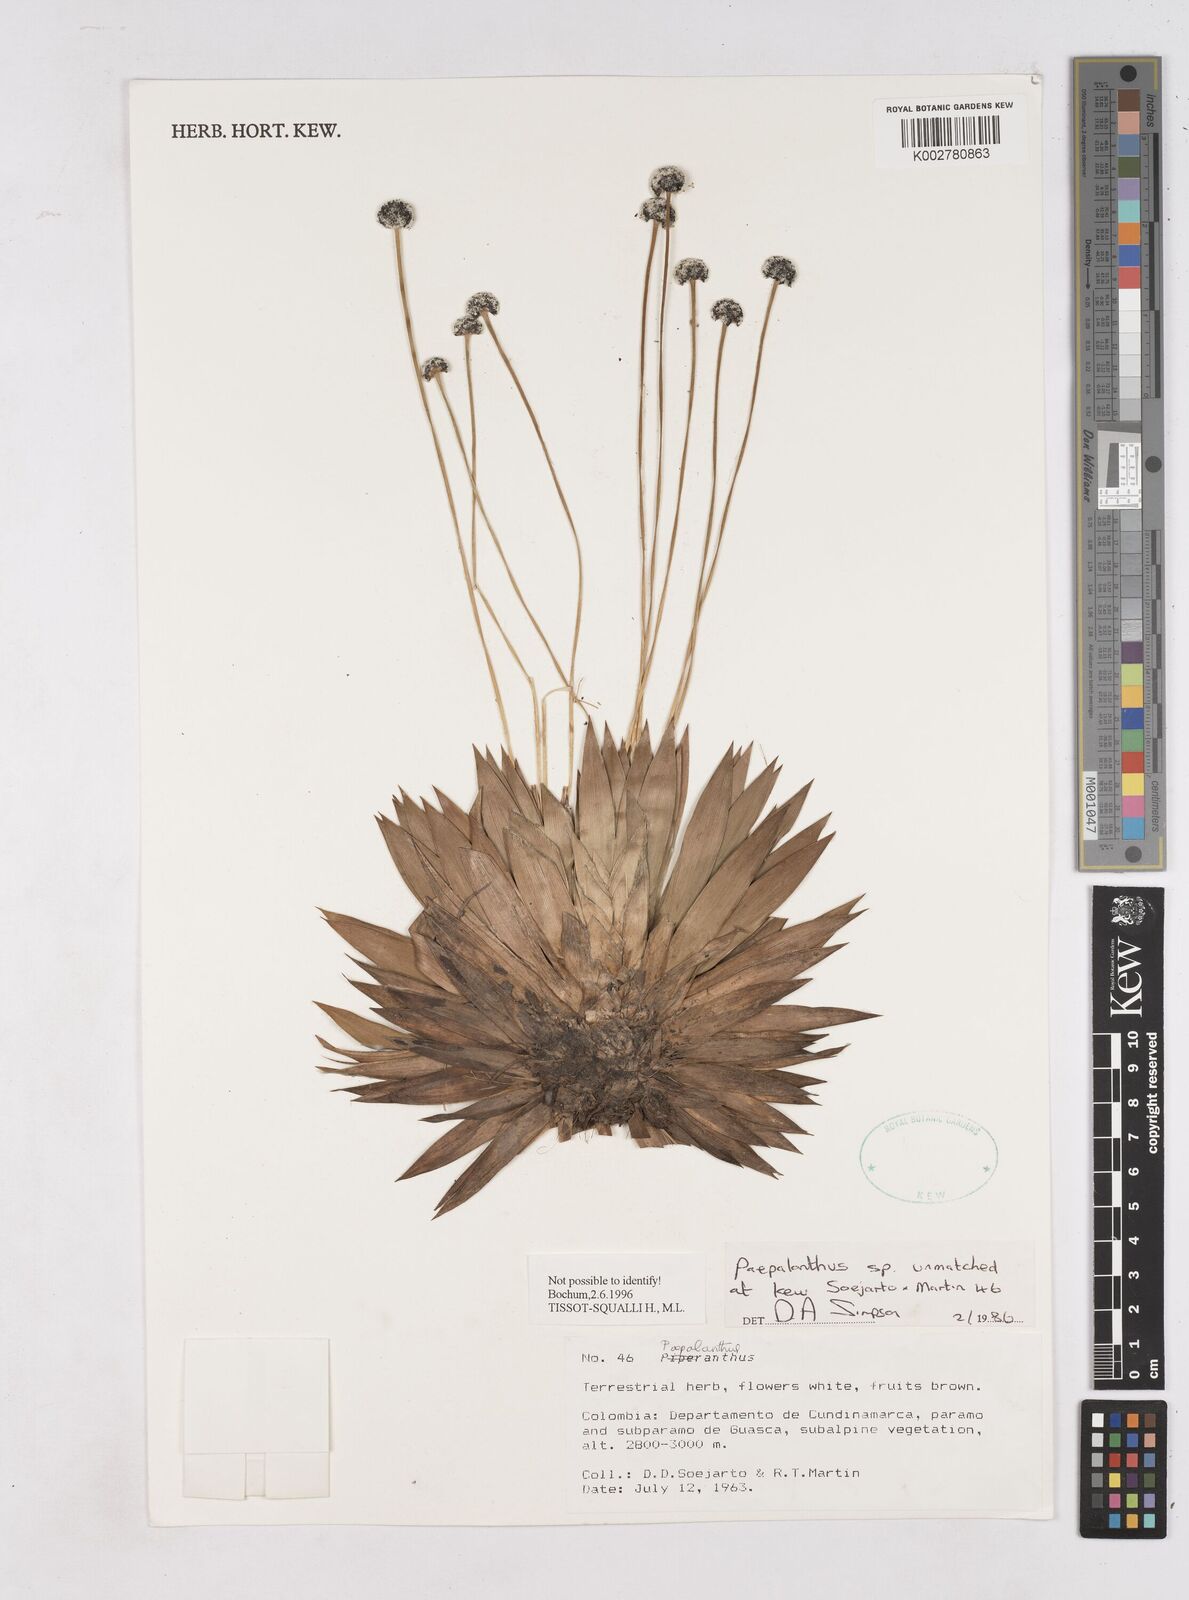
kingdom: Plantae
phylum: Tracheophyta
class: Liliopsida
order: Poales
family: Eriocaulaceae
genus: Paepalanthus
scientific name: Paepalanthus
